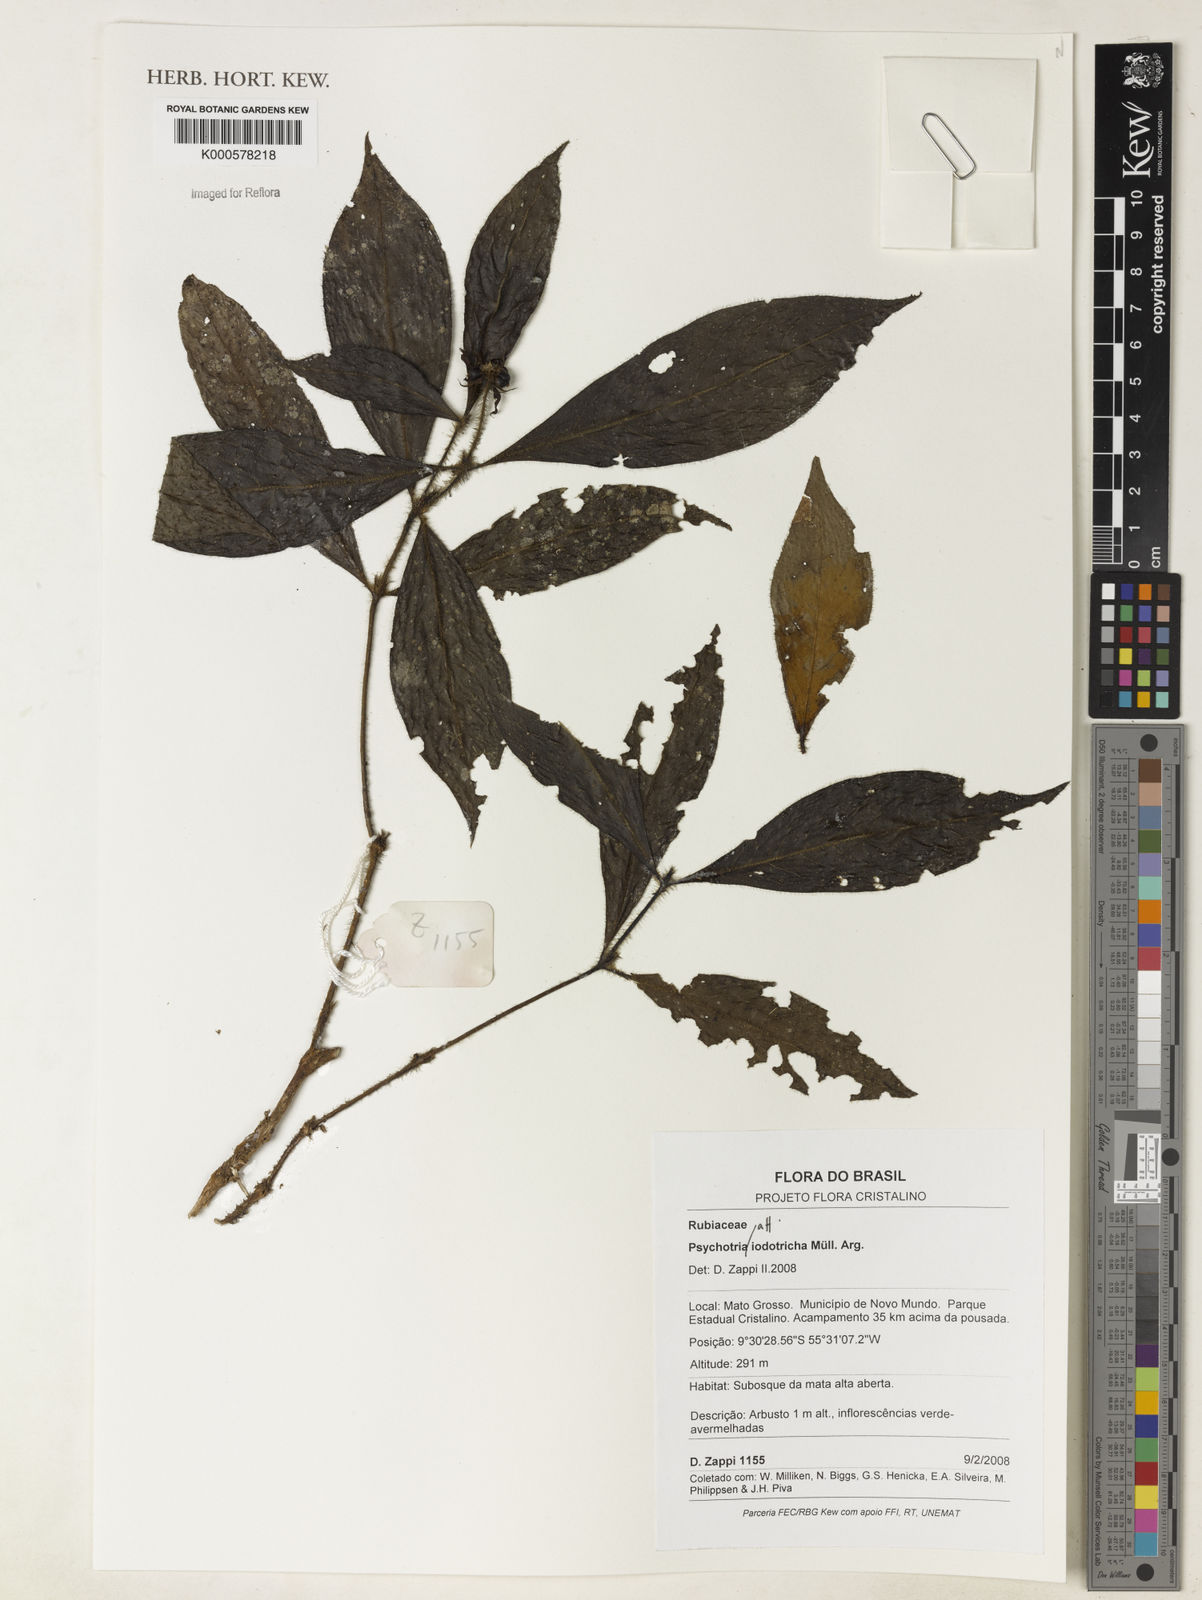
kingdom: Plantae
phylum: Tracheophyta
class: Magnoliopsida
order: Gentianales
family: Rubiaceae
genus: Psychotria
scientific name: Psychotria
